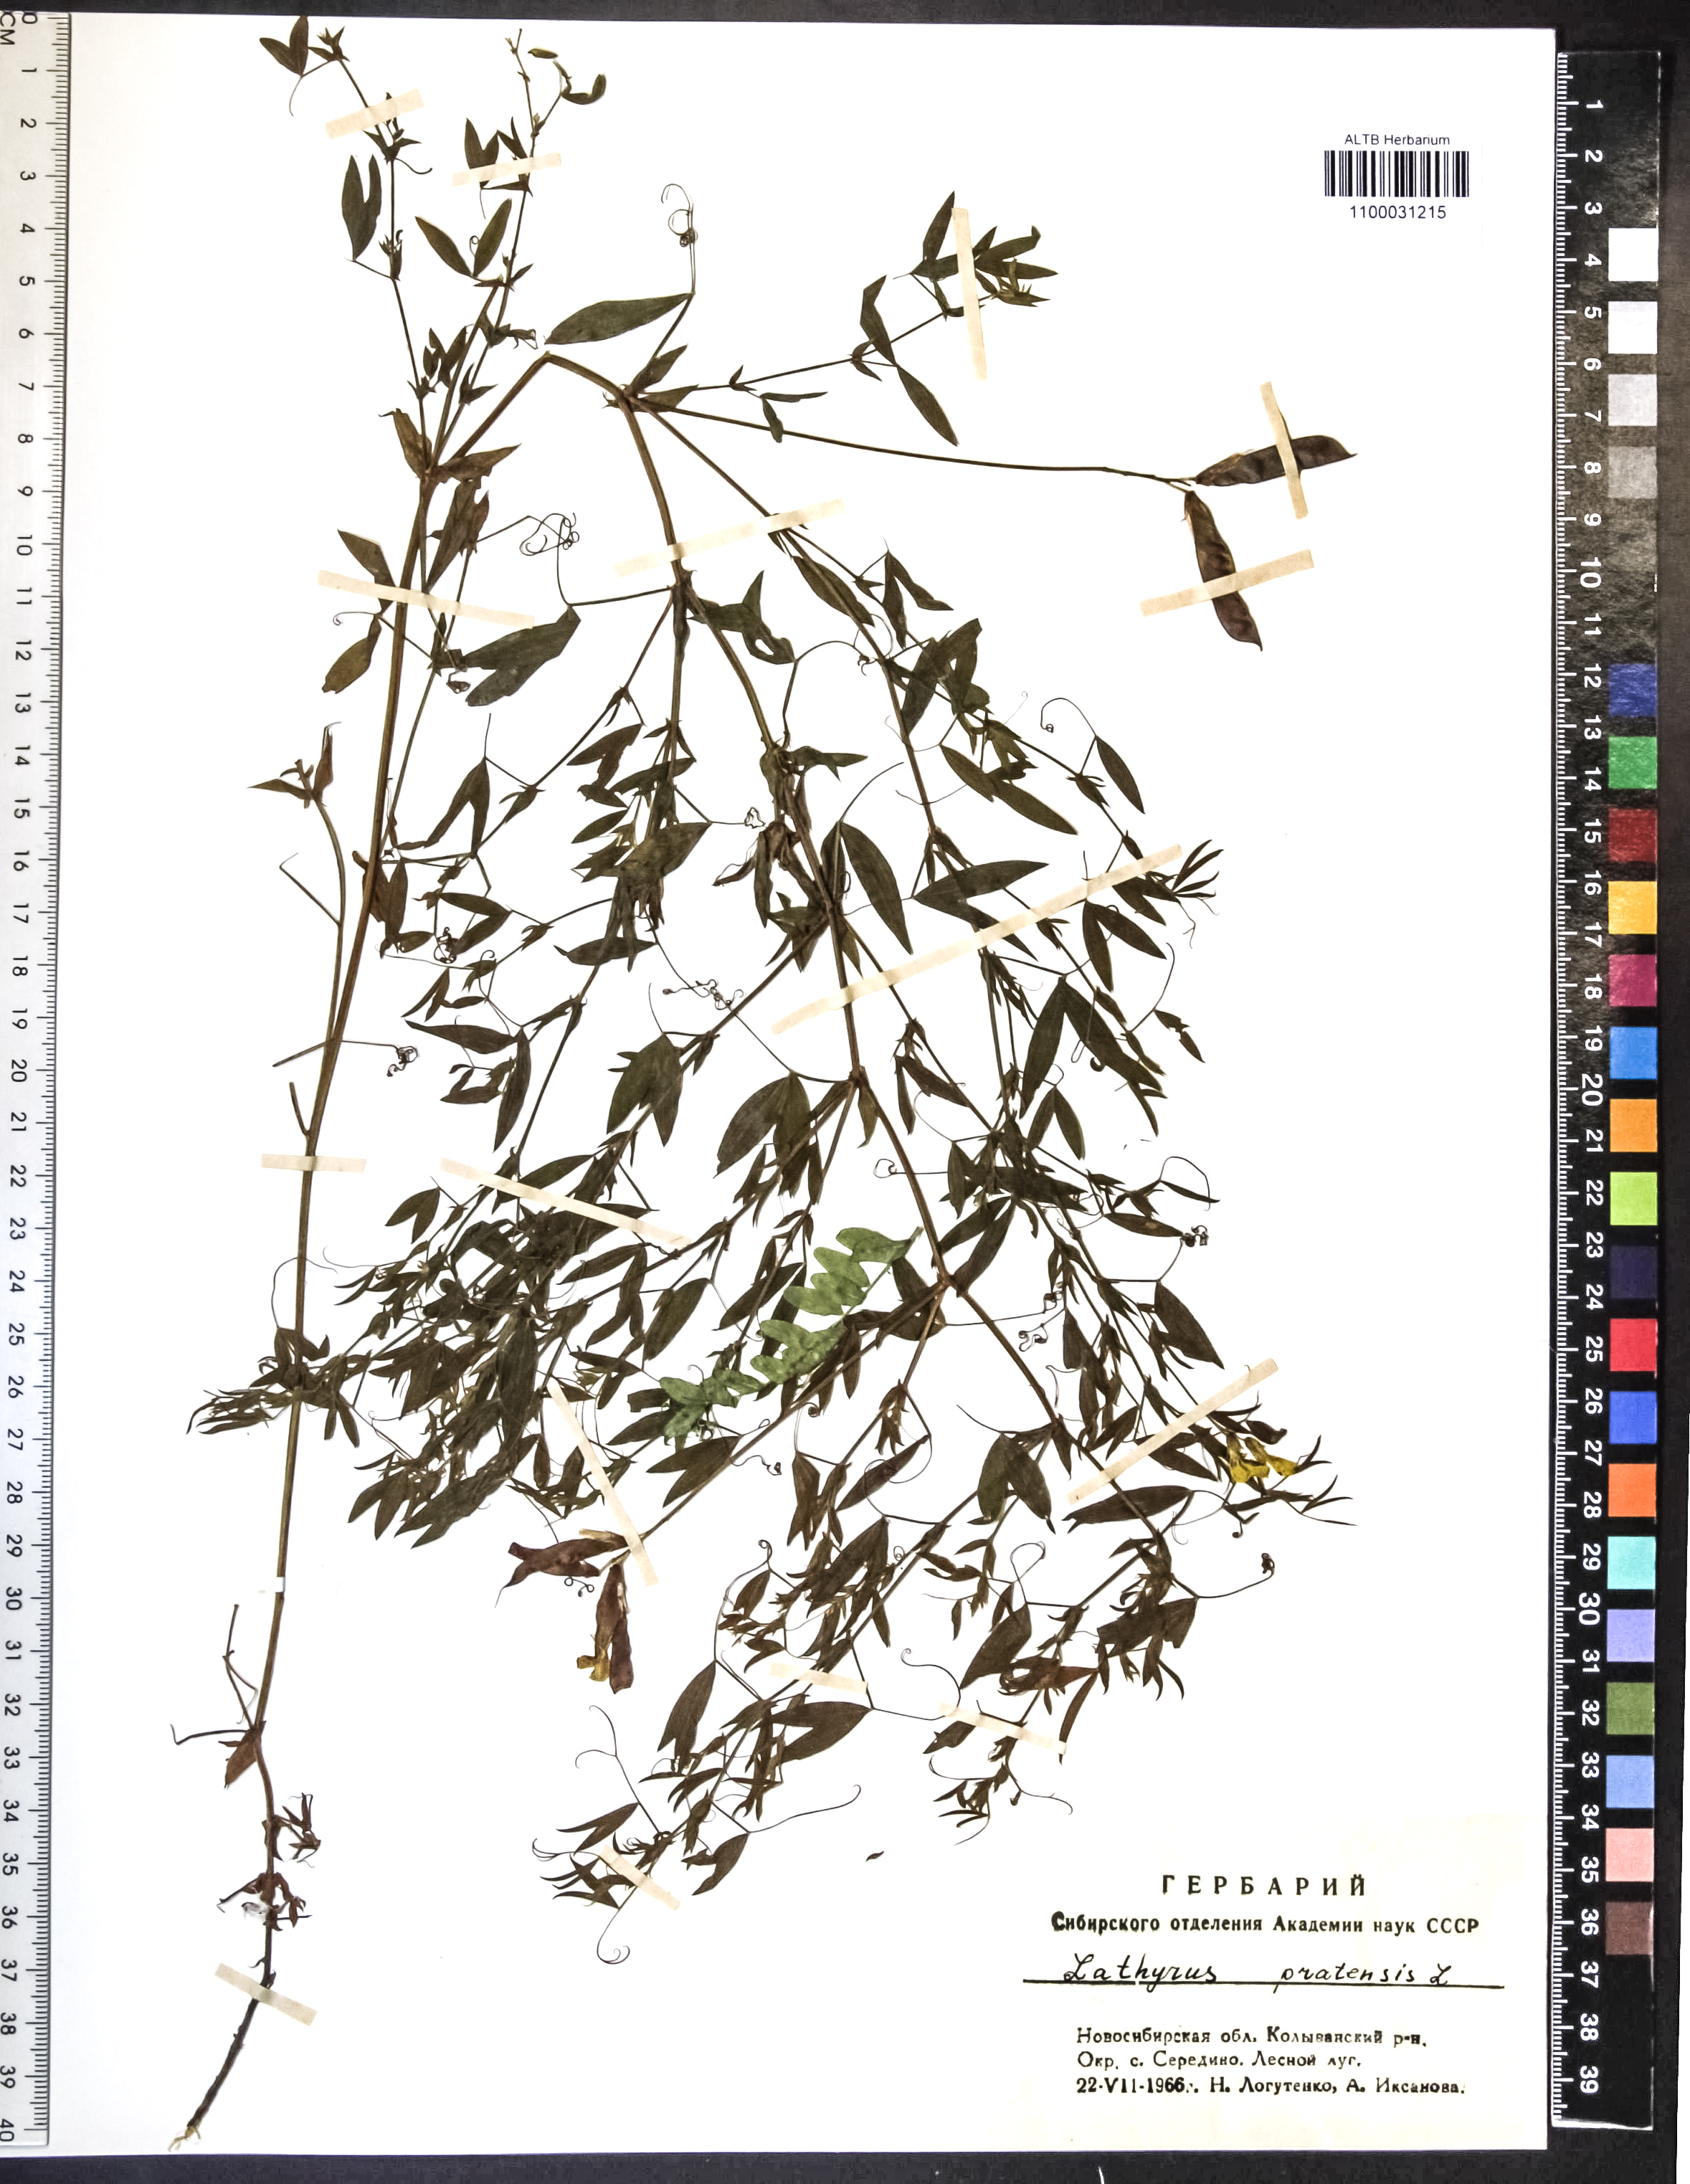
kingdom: Plantae
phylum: Tracheophyta
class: Magnoliopsida
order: Fabales
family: Fabaceae
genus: Lathyrus
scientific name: Lathyrus pratensis
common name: Meadow vetchling
